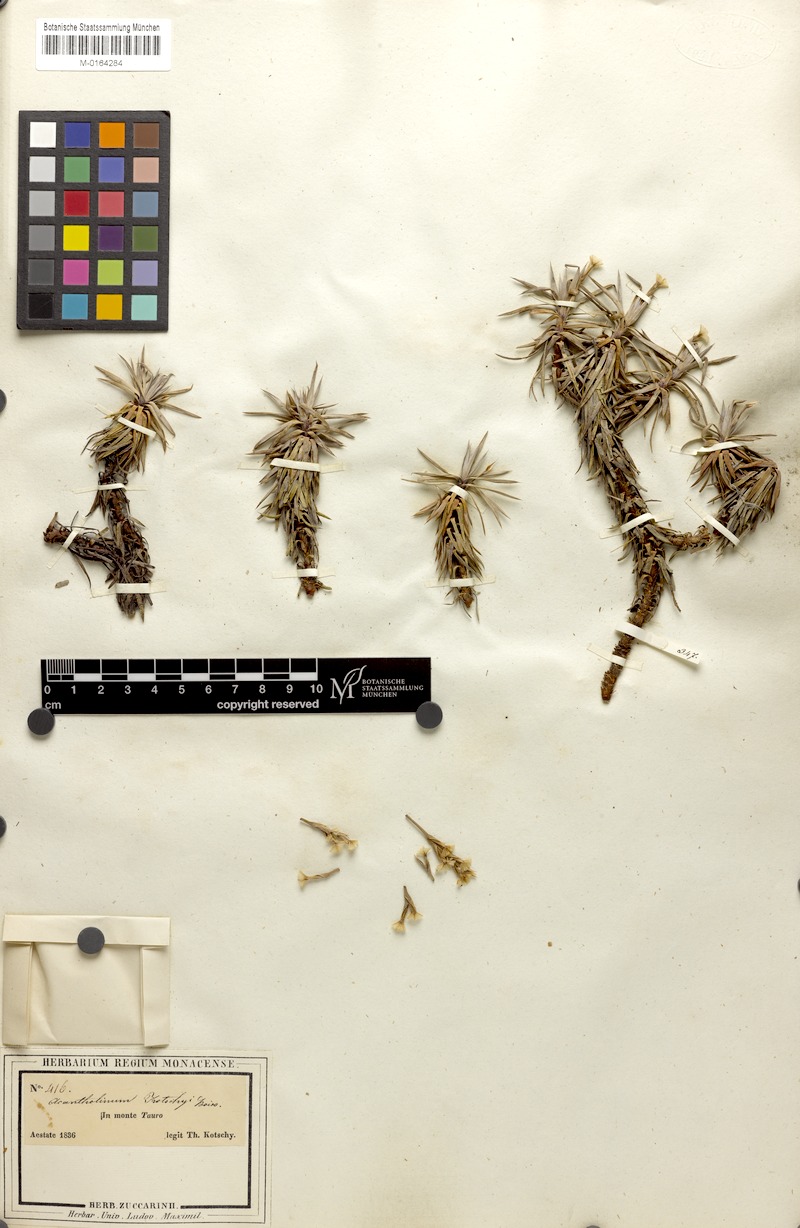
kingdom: Plantae
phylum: Tracheophyta
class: Magnoliopsida
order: Caryophyllales
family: Plumbaginaceae
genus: Acantholimon
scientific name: Acantholimon kotschyi
